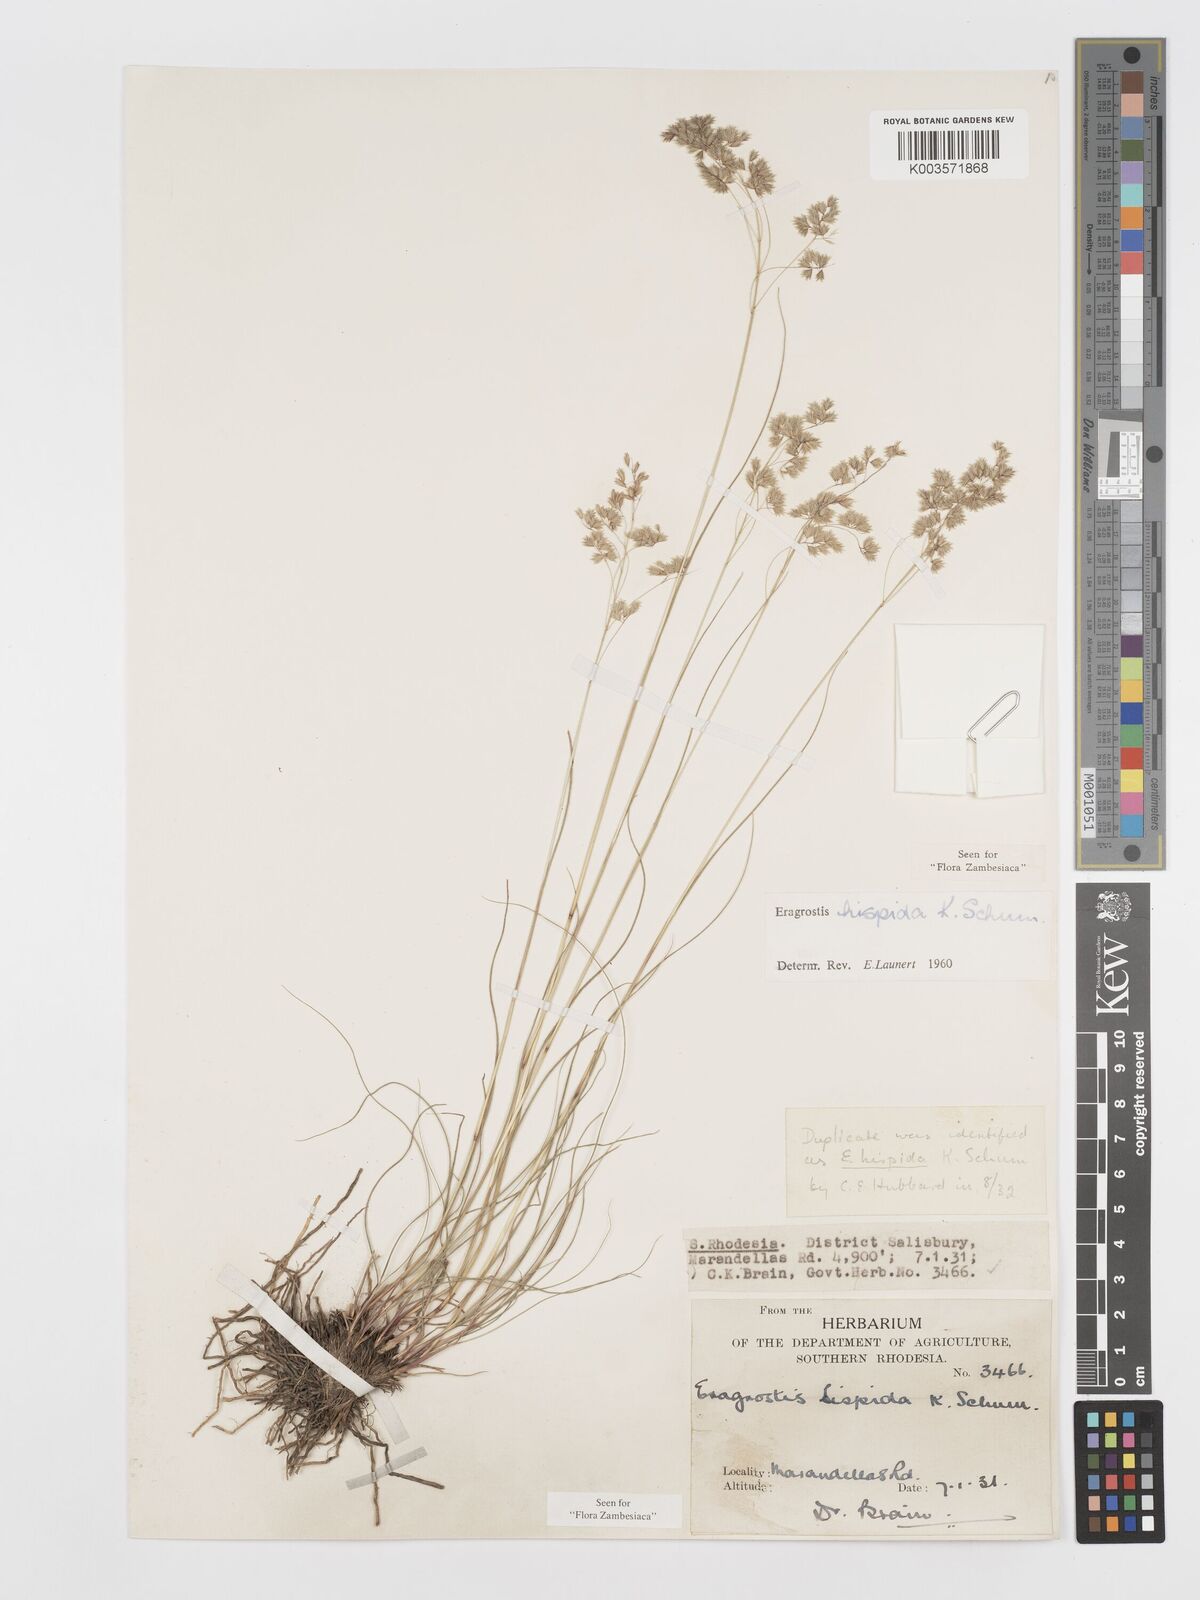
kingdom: Plantae
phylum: Tracheophyta
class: Liliopsida
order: Poales
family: Poaceae
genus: Eragrostis
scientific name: Eragrostis hispida
